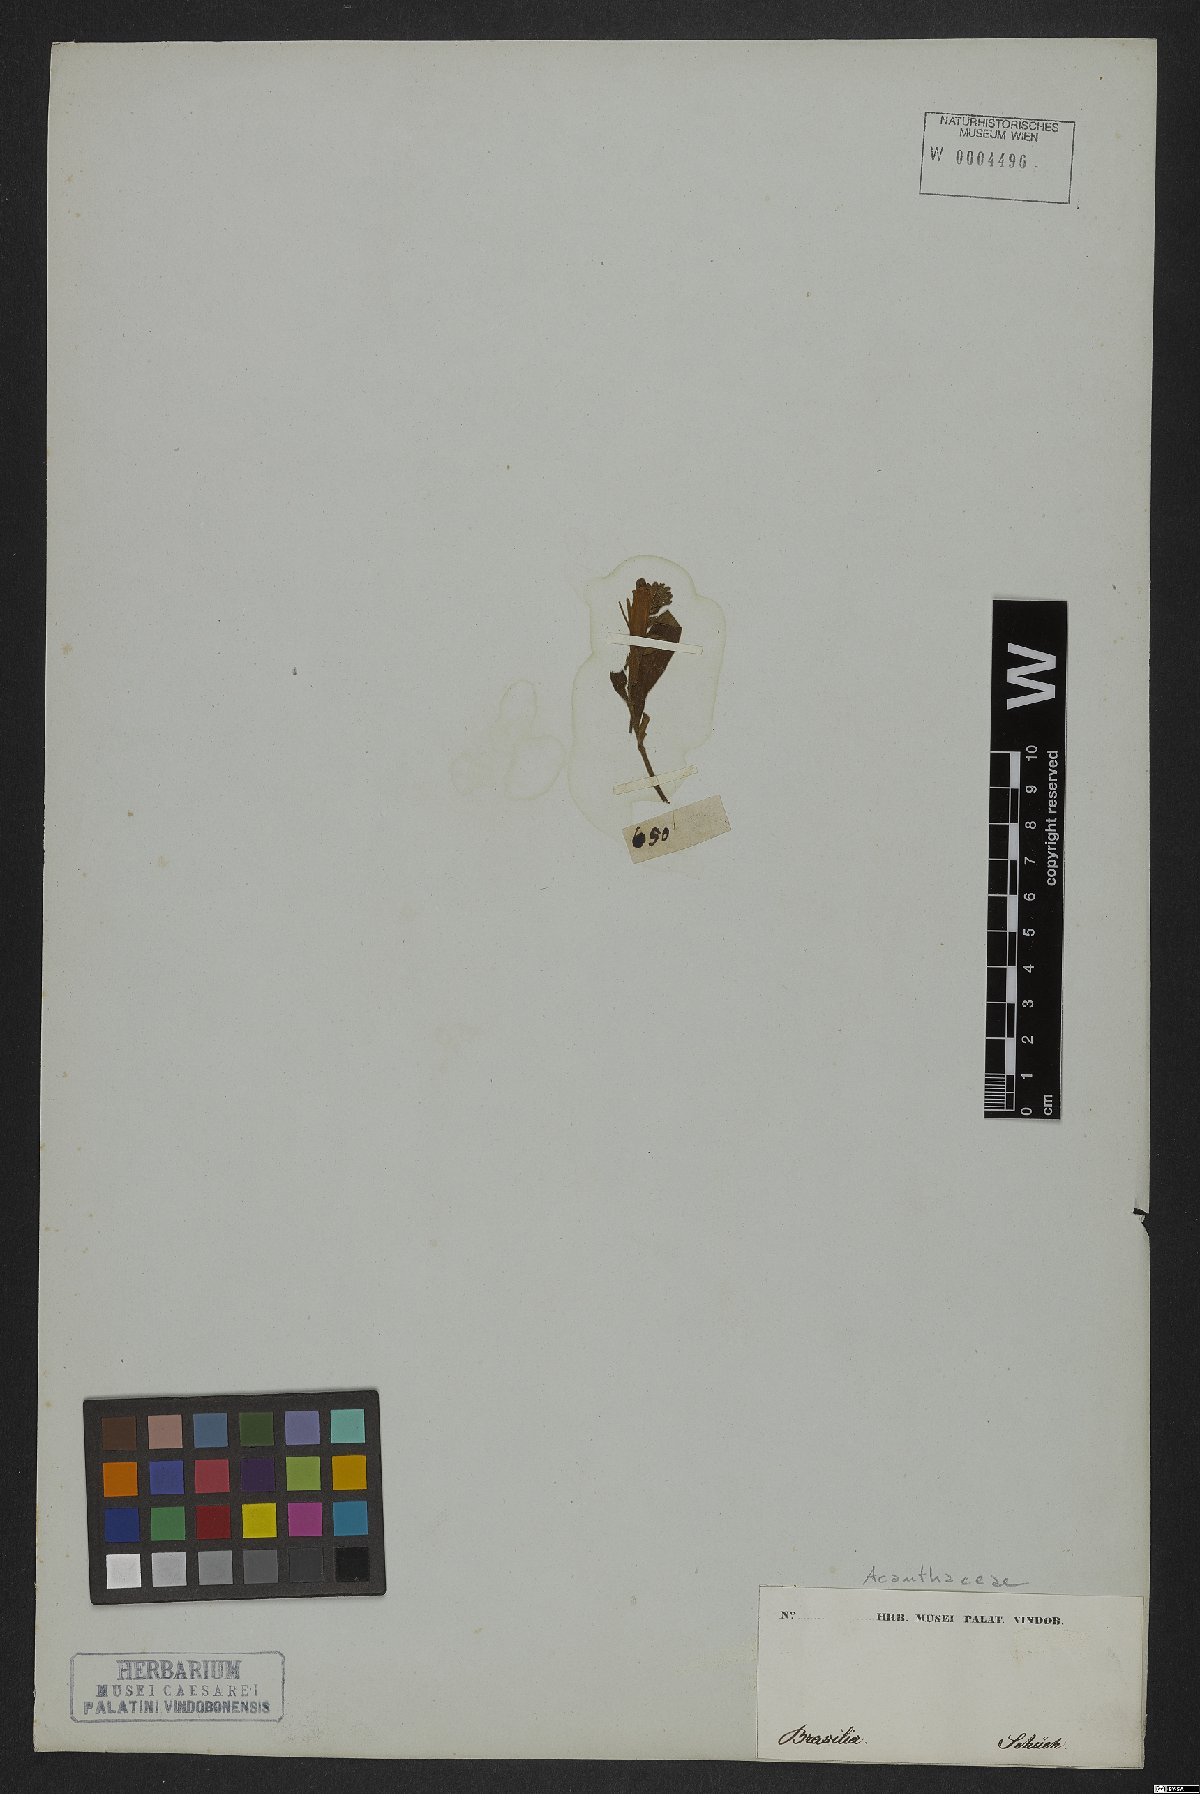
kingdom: Plantae
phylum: Tracheophyta
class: Magnoliopsida
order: Lamiales
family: Acanthaceae
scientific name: Acanthaceae
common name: Acanthaceae
